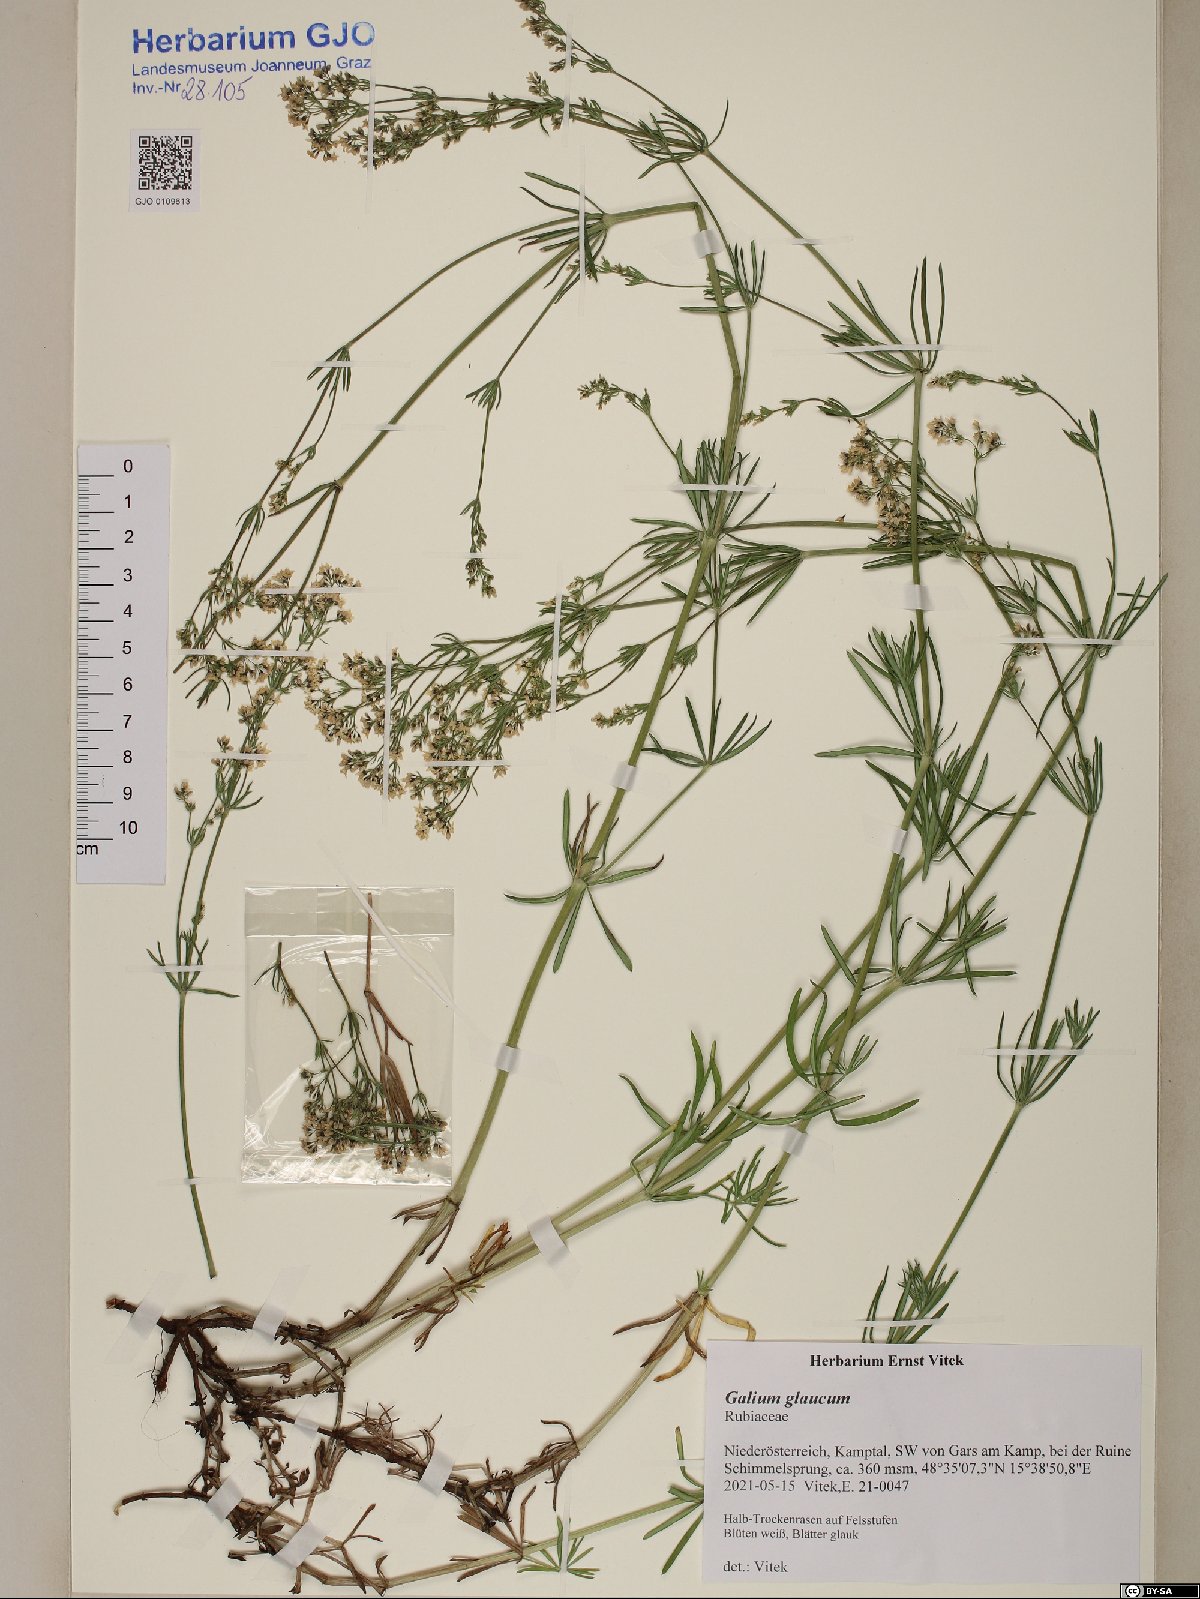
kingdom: Plantae
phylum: Tracheophyta
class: Magnoliopsida
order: Gentianales
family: Rubiaceae
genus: Galium
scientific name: Galium glaucum
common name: Waxy bedstraw
